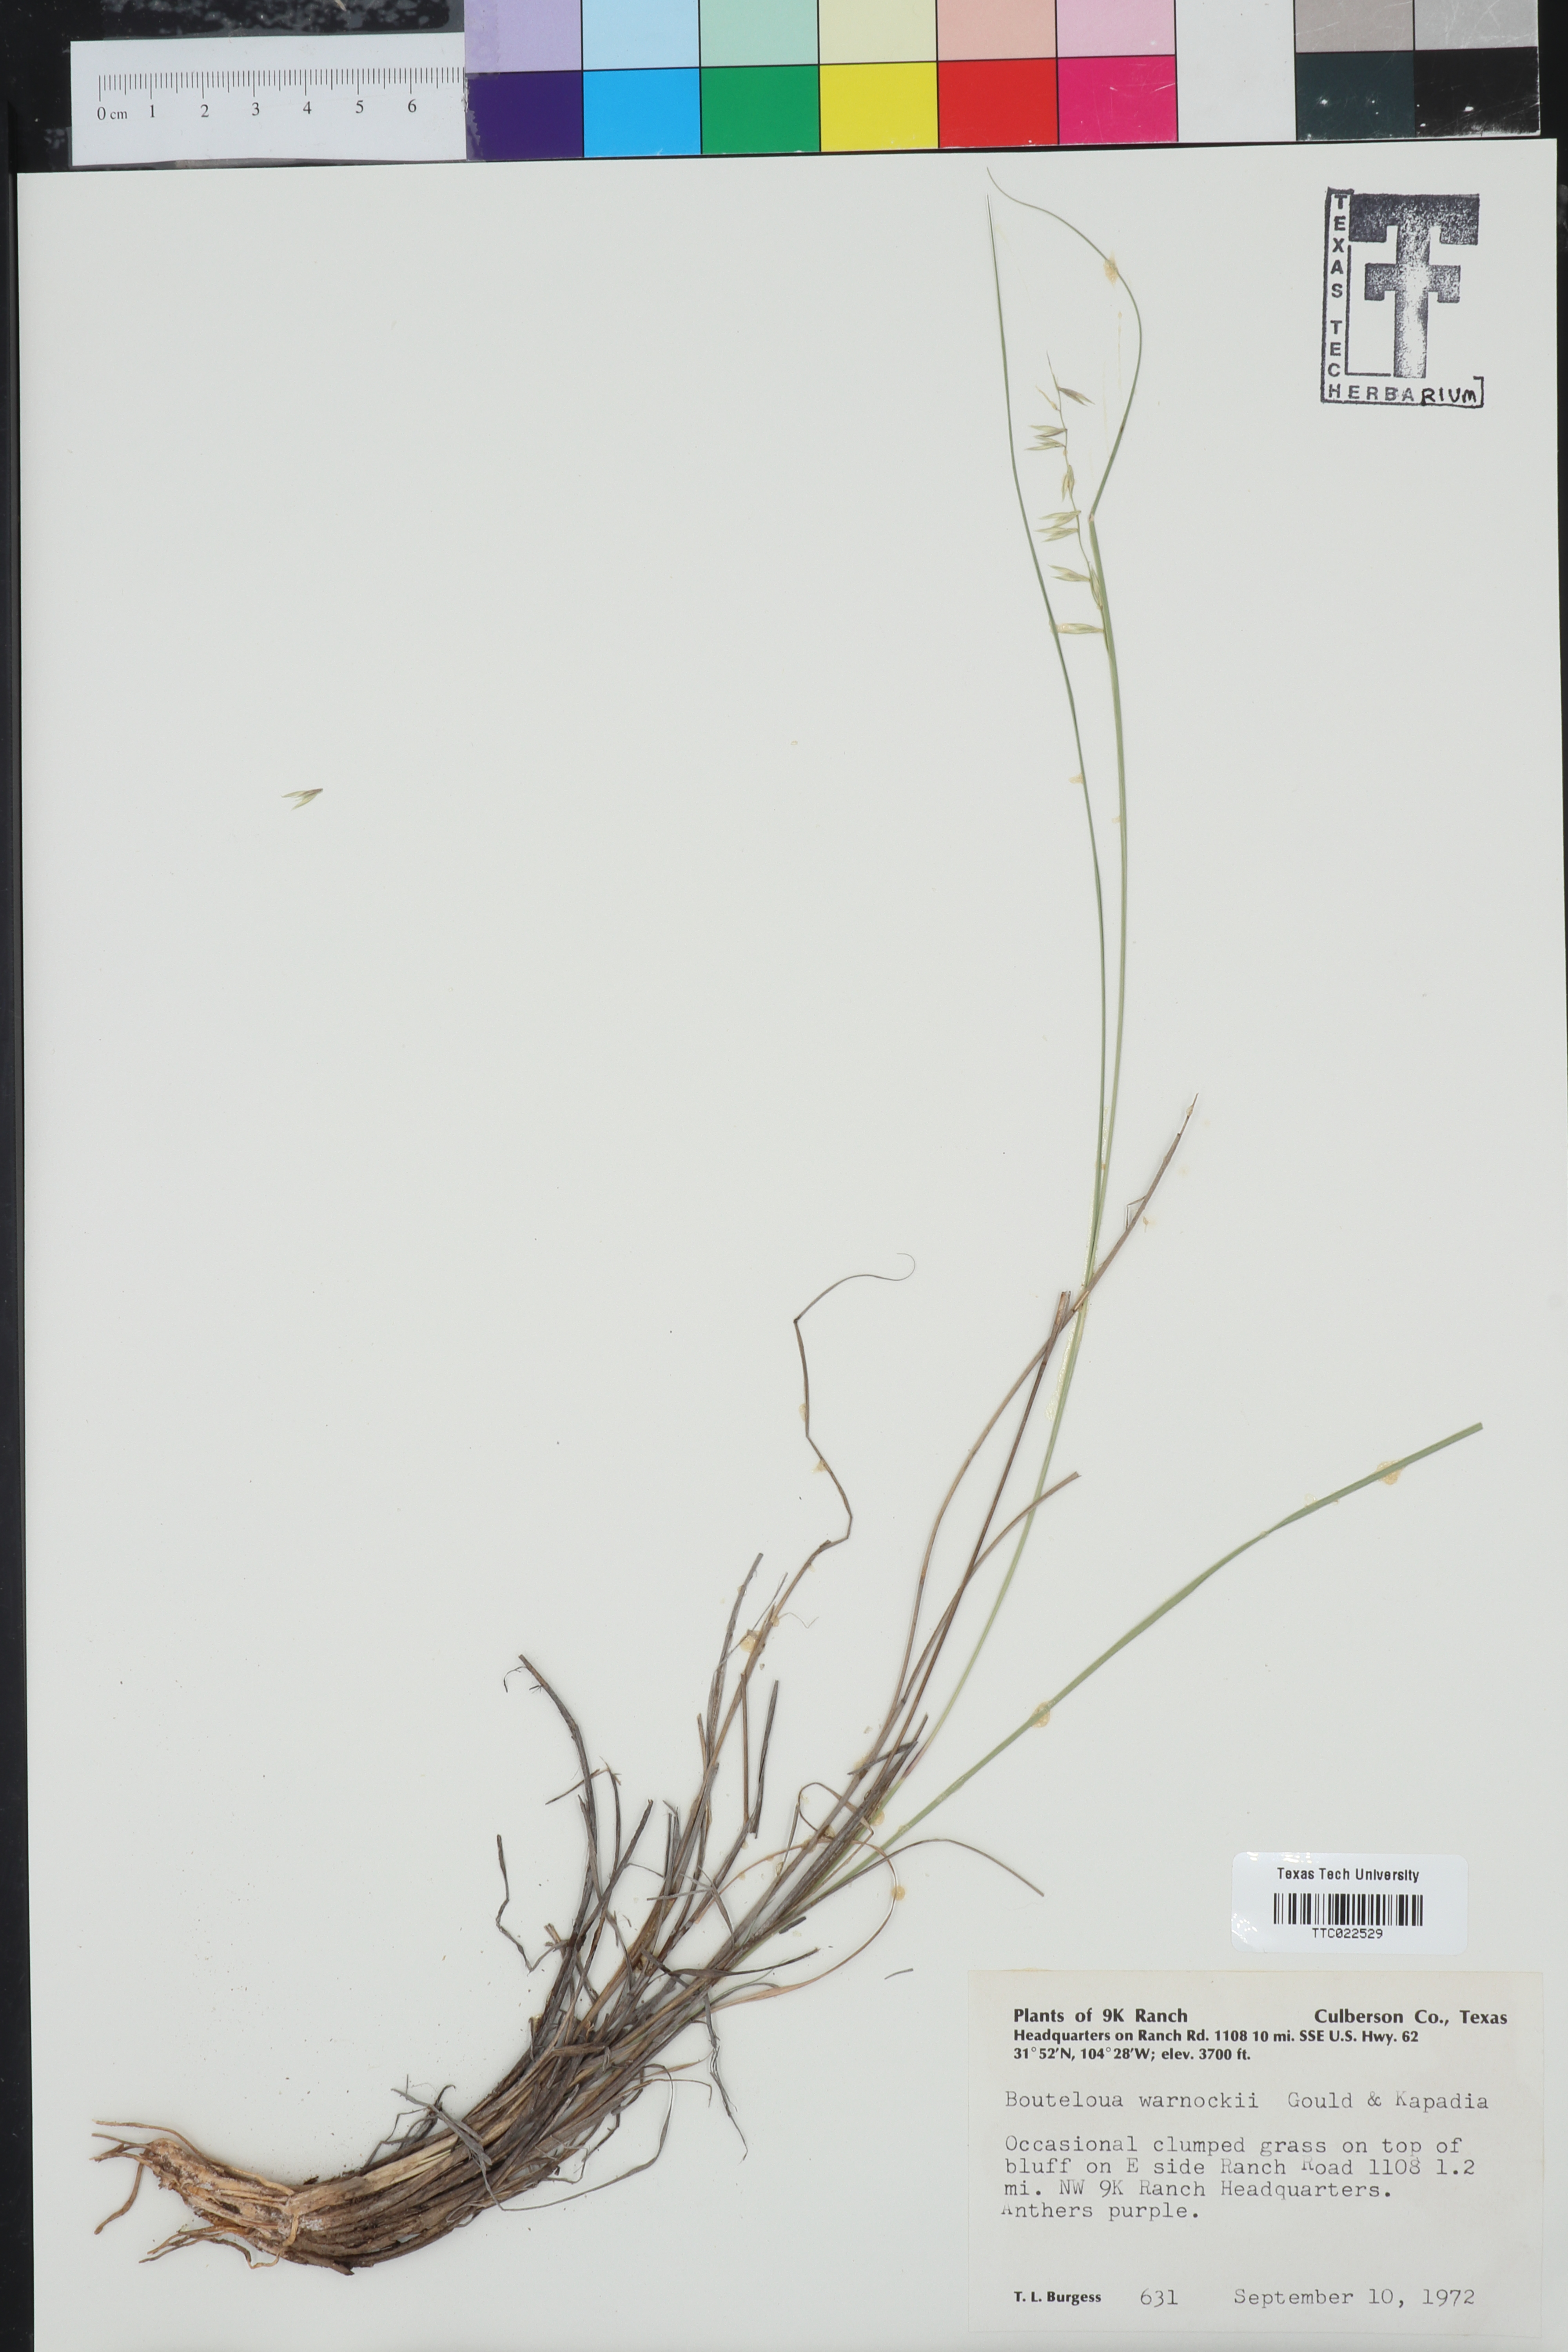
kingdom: Plantae
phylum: Tracheophyta
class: Liliopsida
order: Poales
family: Poaceae
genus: Bouteloua
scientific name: Bouteloua warnockii
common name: Warnock's grama
